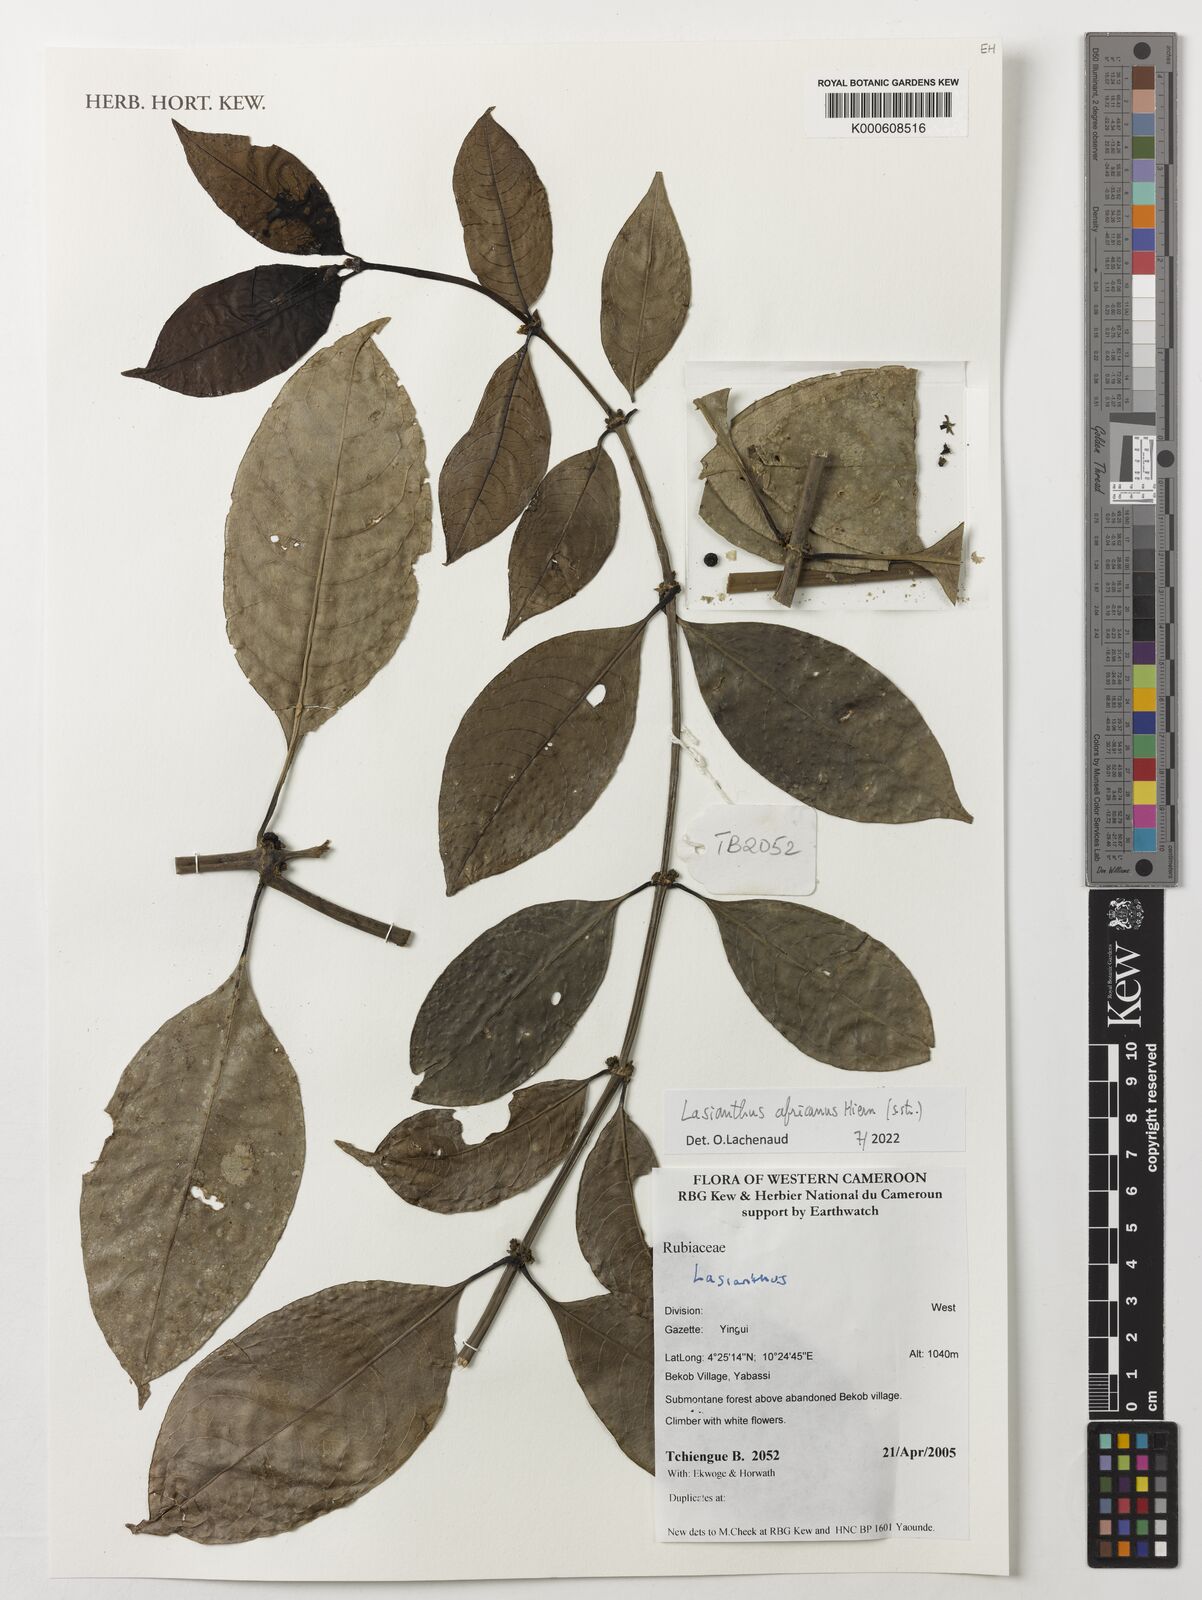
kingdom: Plantae
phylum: Tracheophyta
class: Magnoliopsida
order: Gentianales
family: Rubiaceae
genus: Lasianthus
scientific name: Lasianthus africanus
